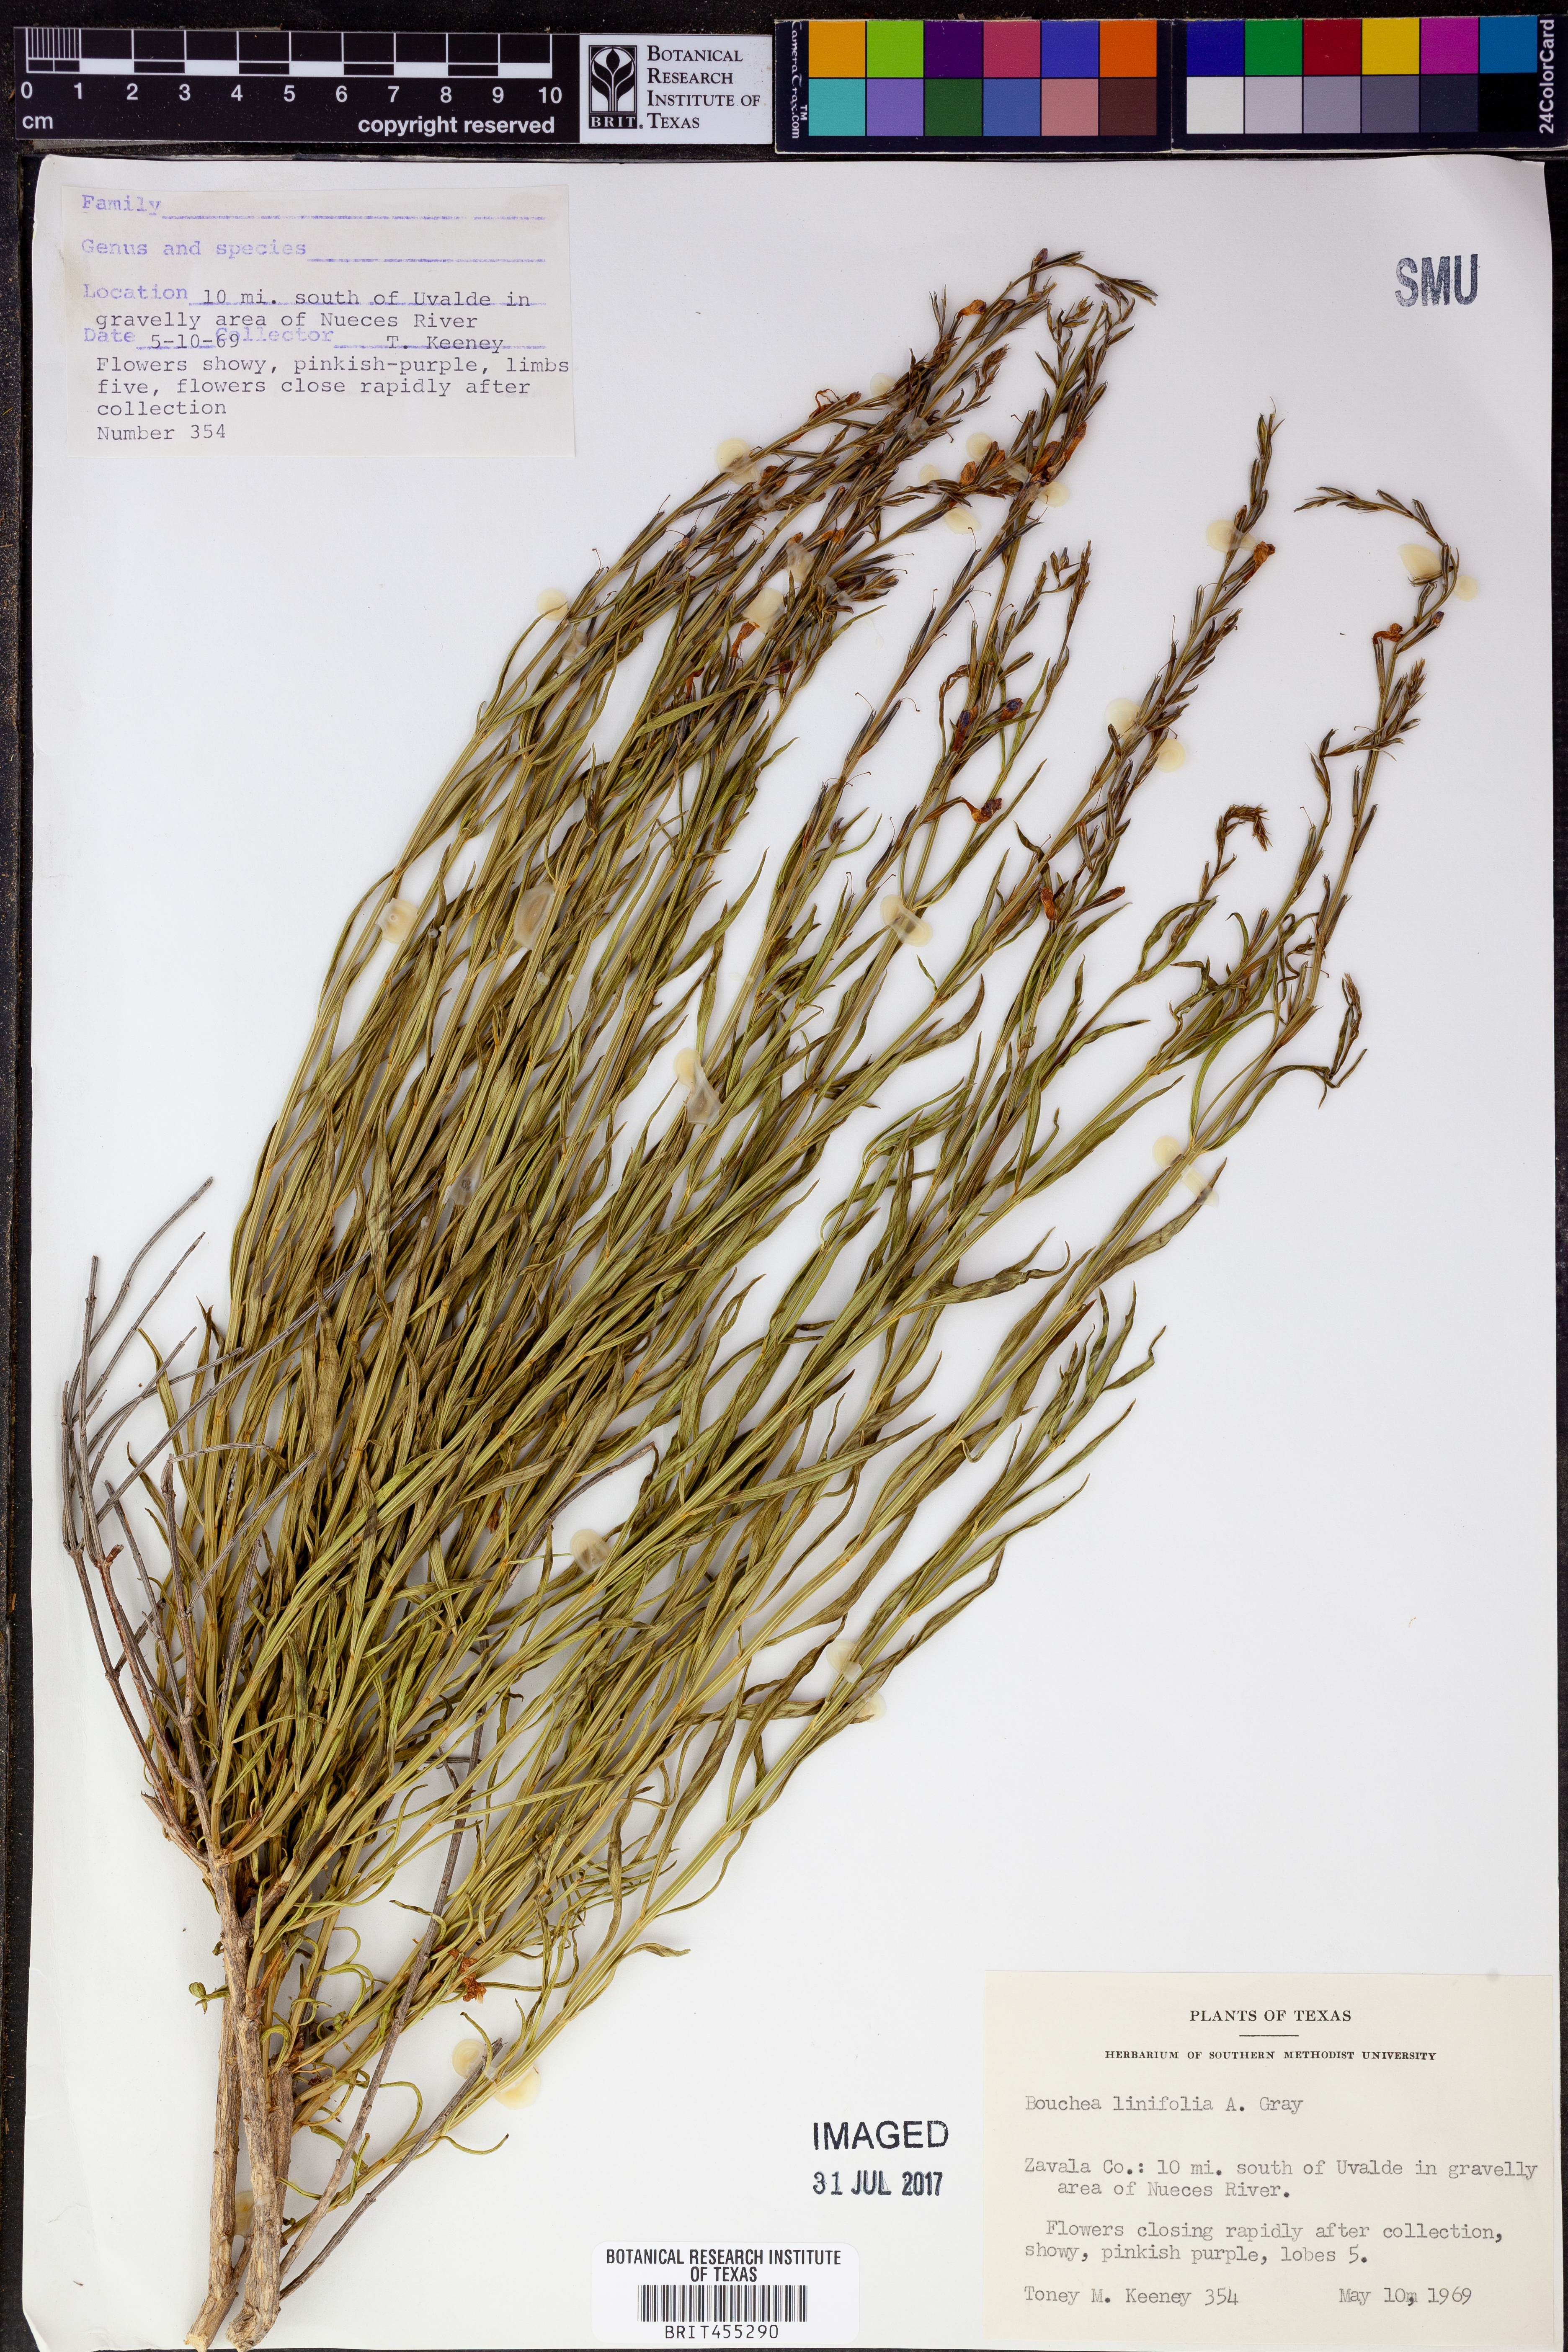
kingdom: Plantae
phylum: Tracheophyta
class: Magnoliopsida
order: Lamiales
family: Verbenaceae
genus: Bouchea
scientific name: Bouchea linifolia
